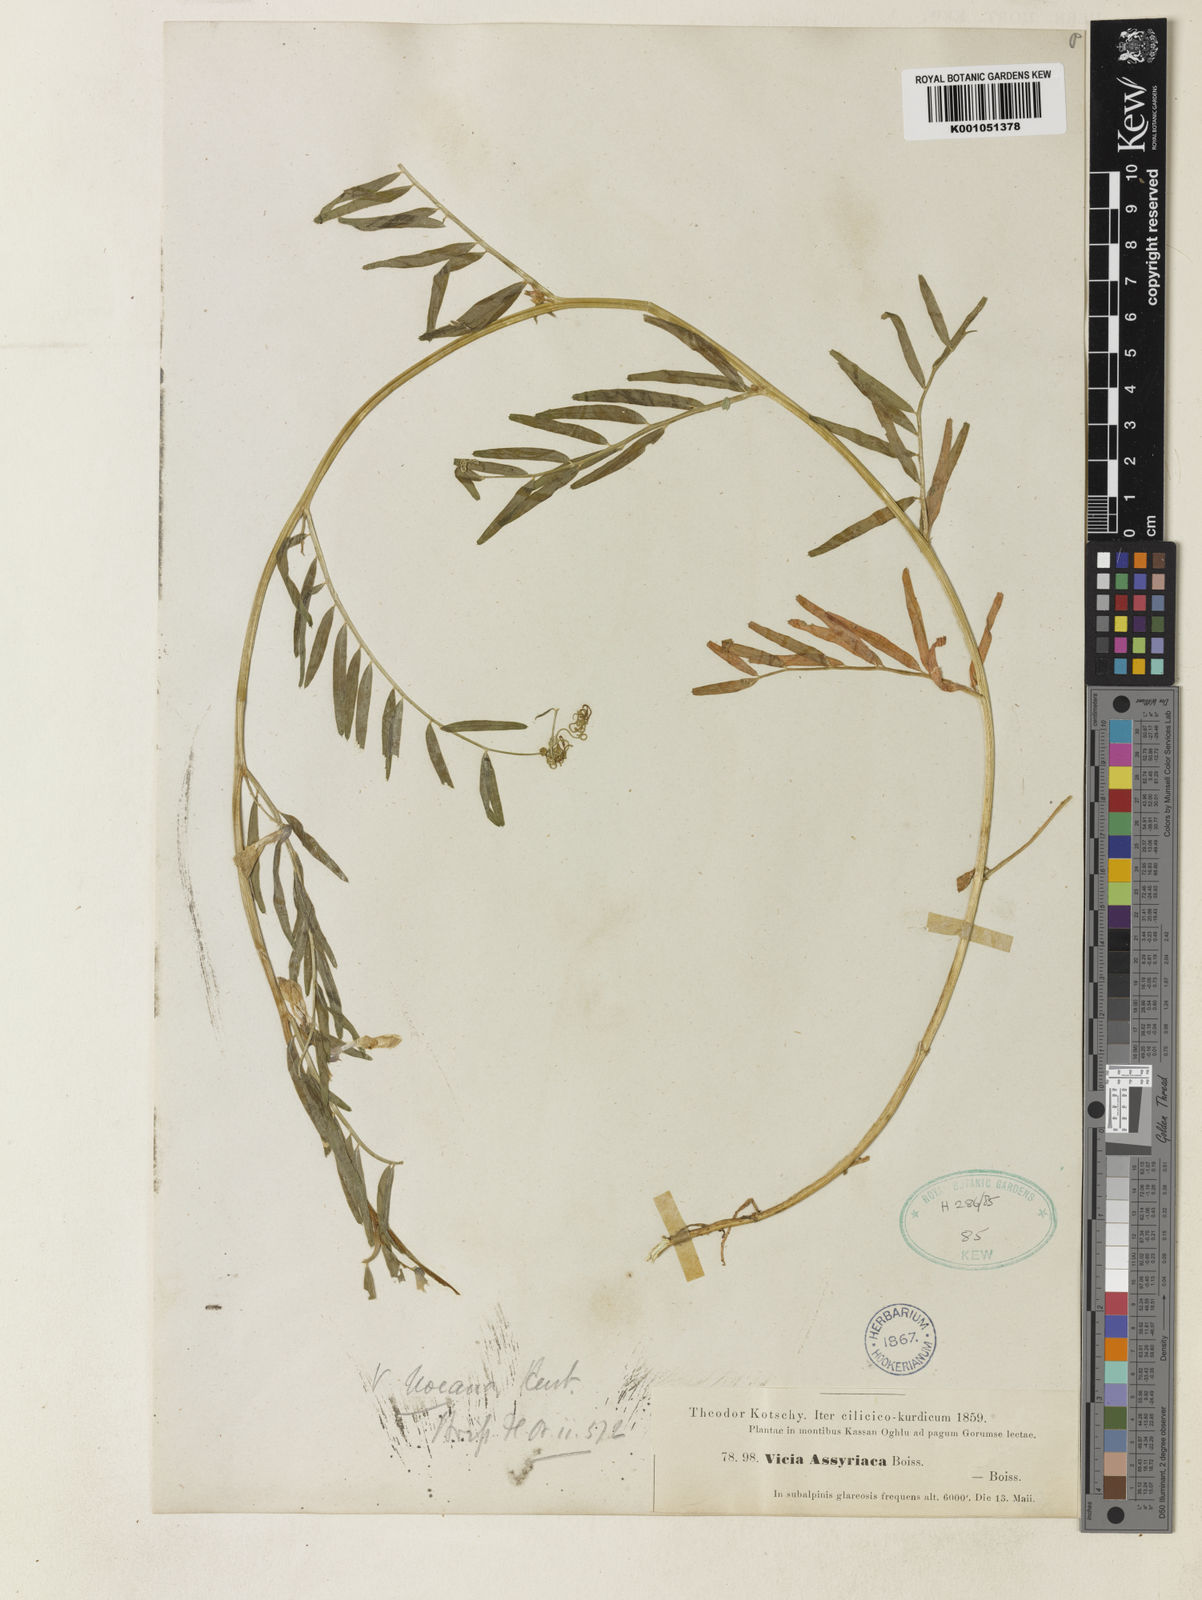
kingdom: Plantae
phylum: Tracheophyta
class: Magnoliopsida
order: Fabales
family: Fabaceae
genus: Vicia
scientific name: Vicia assyriaca
